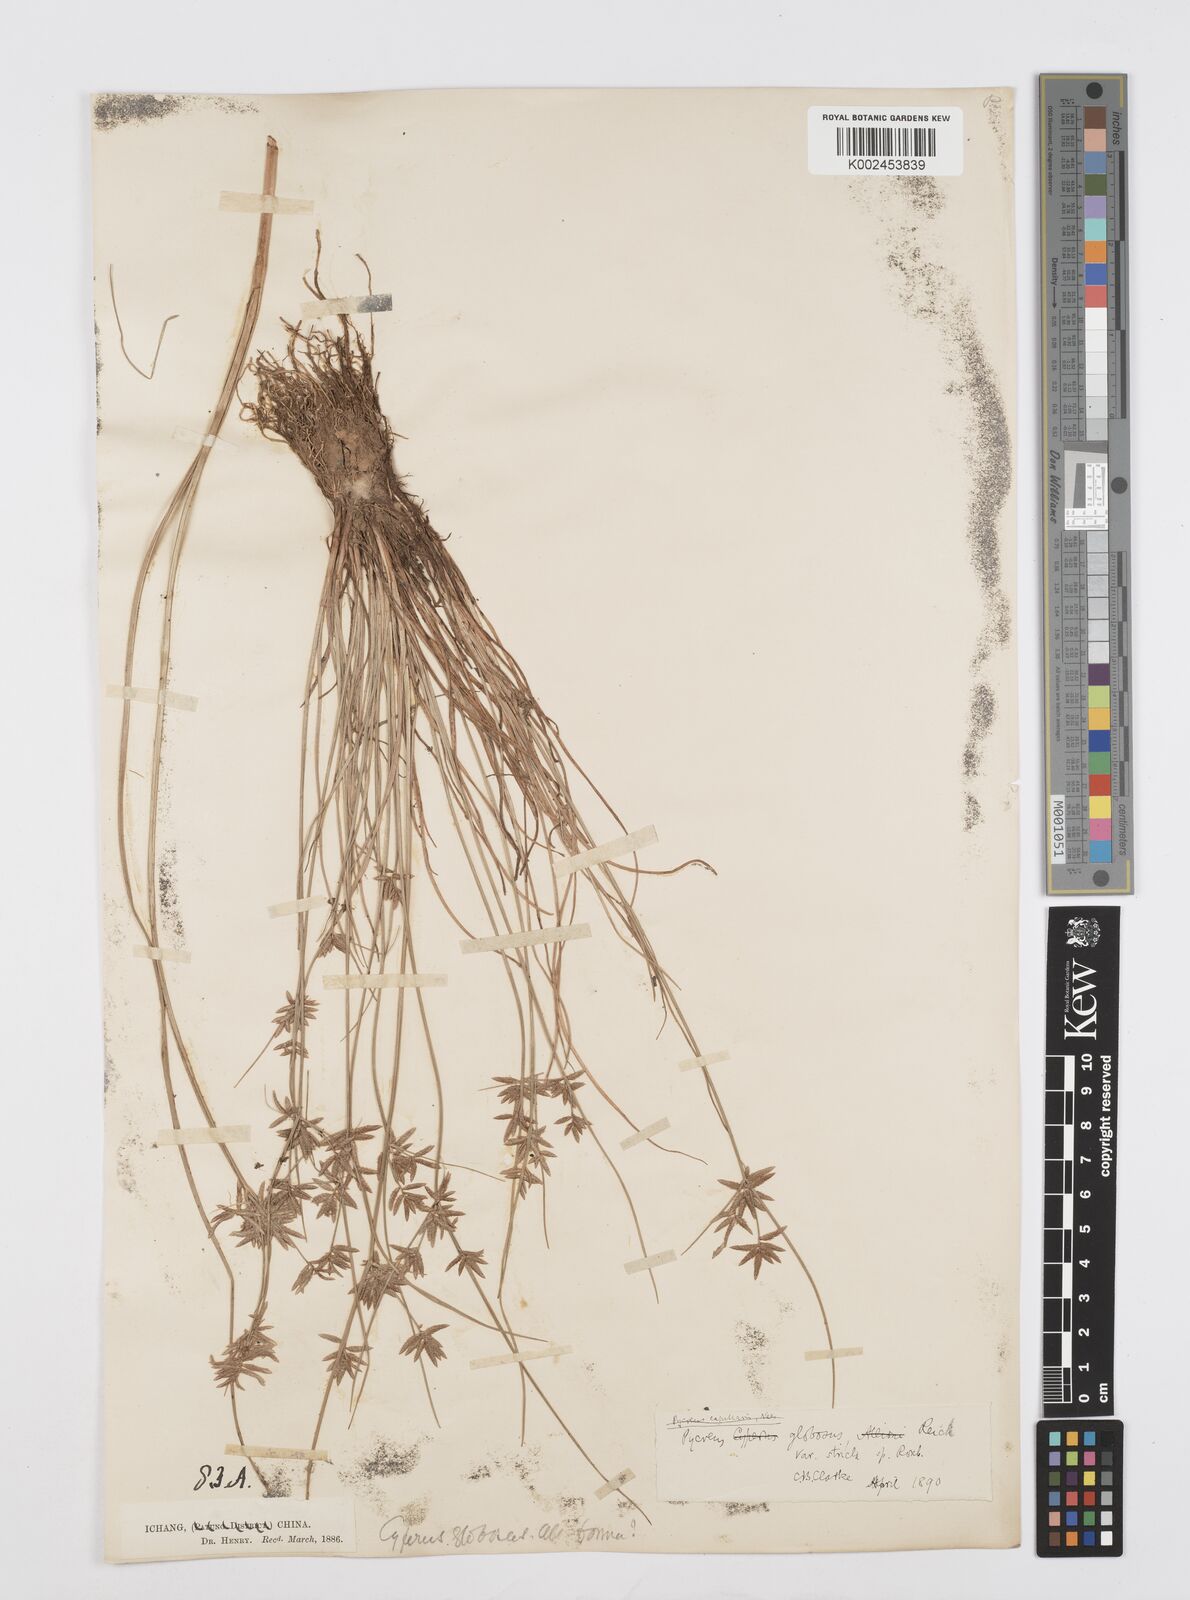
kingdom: Plantae
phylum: Tracheophyta
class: Liliopsida
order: Poales
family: Cyperaceae
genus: Cyperus
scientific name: Cyperus flavidus
